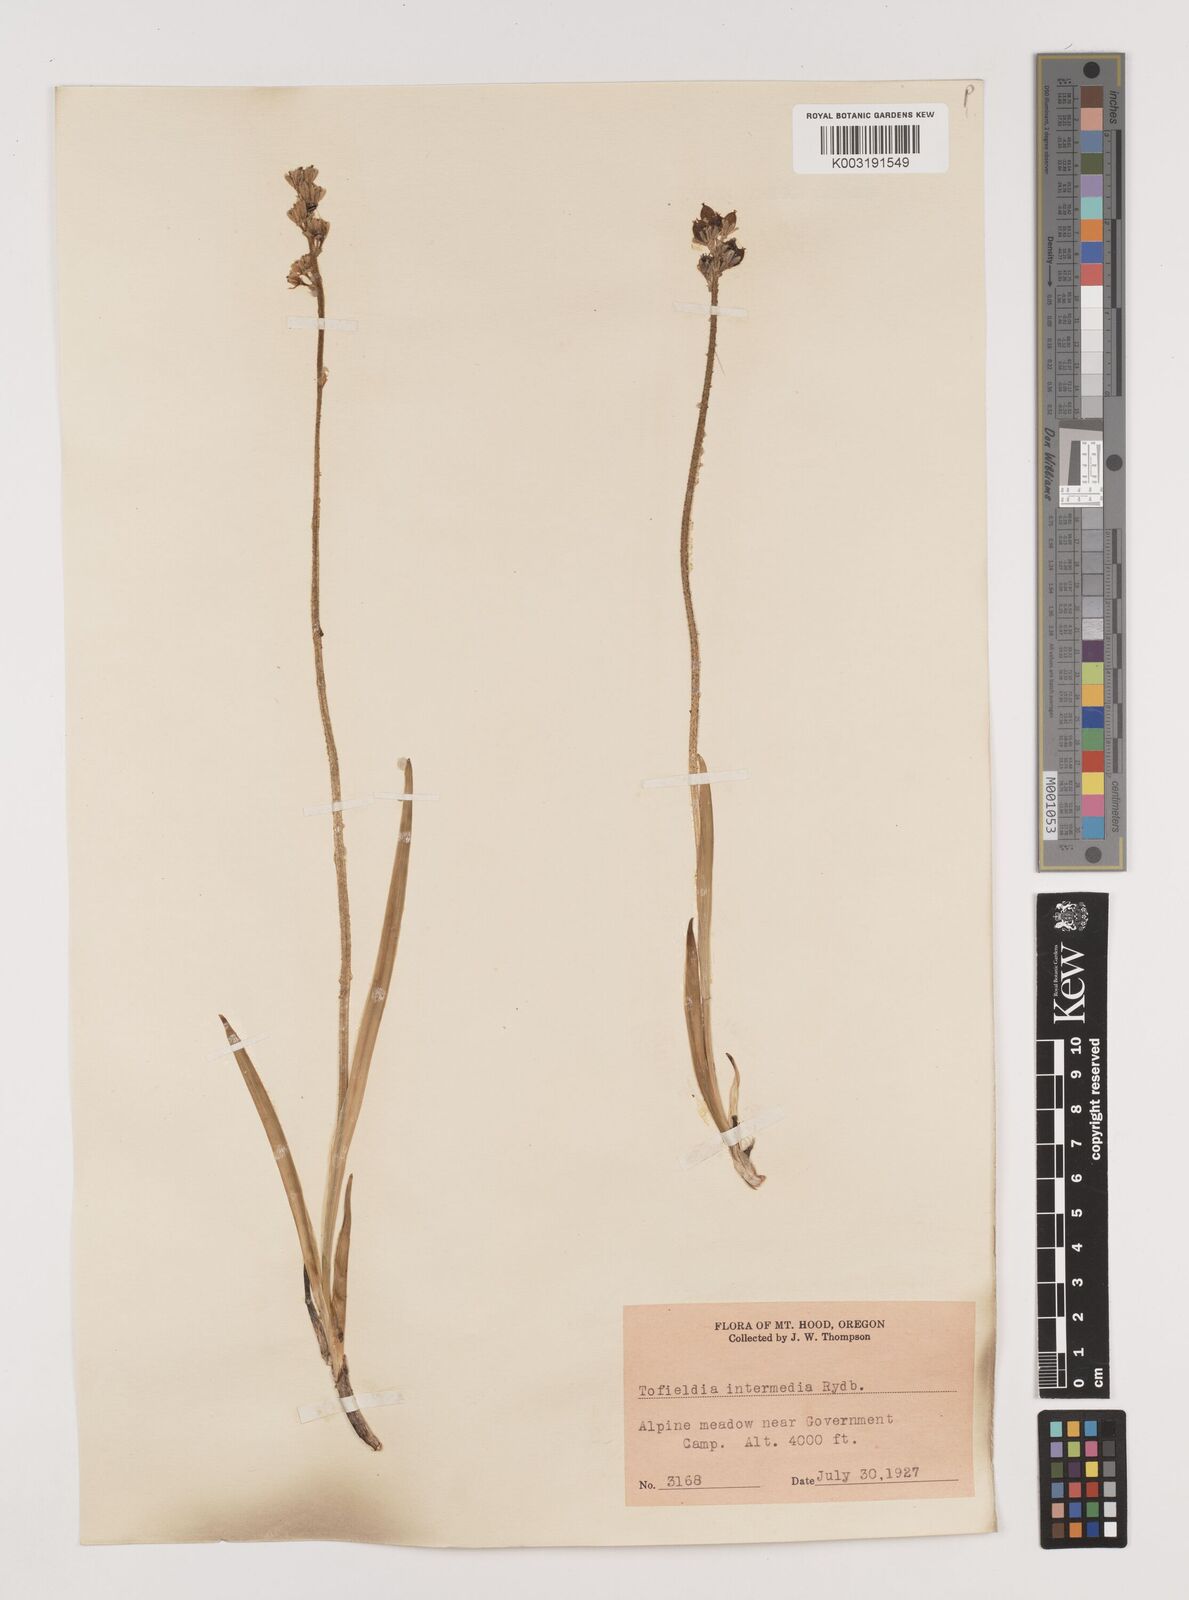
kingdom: Plantae
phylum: Tracheophyta
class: Liliopsida
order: Alismatales
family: Tofieldiaceae
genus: Triantha
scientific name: Triantha occidentalis
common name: Western false asphodel
